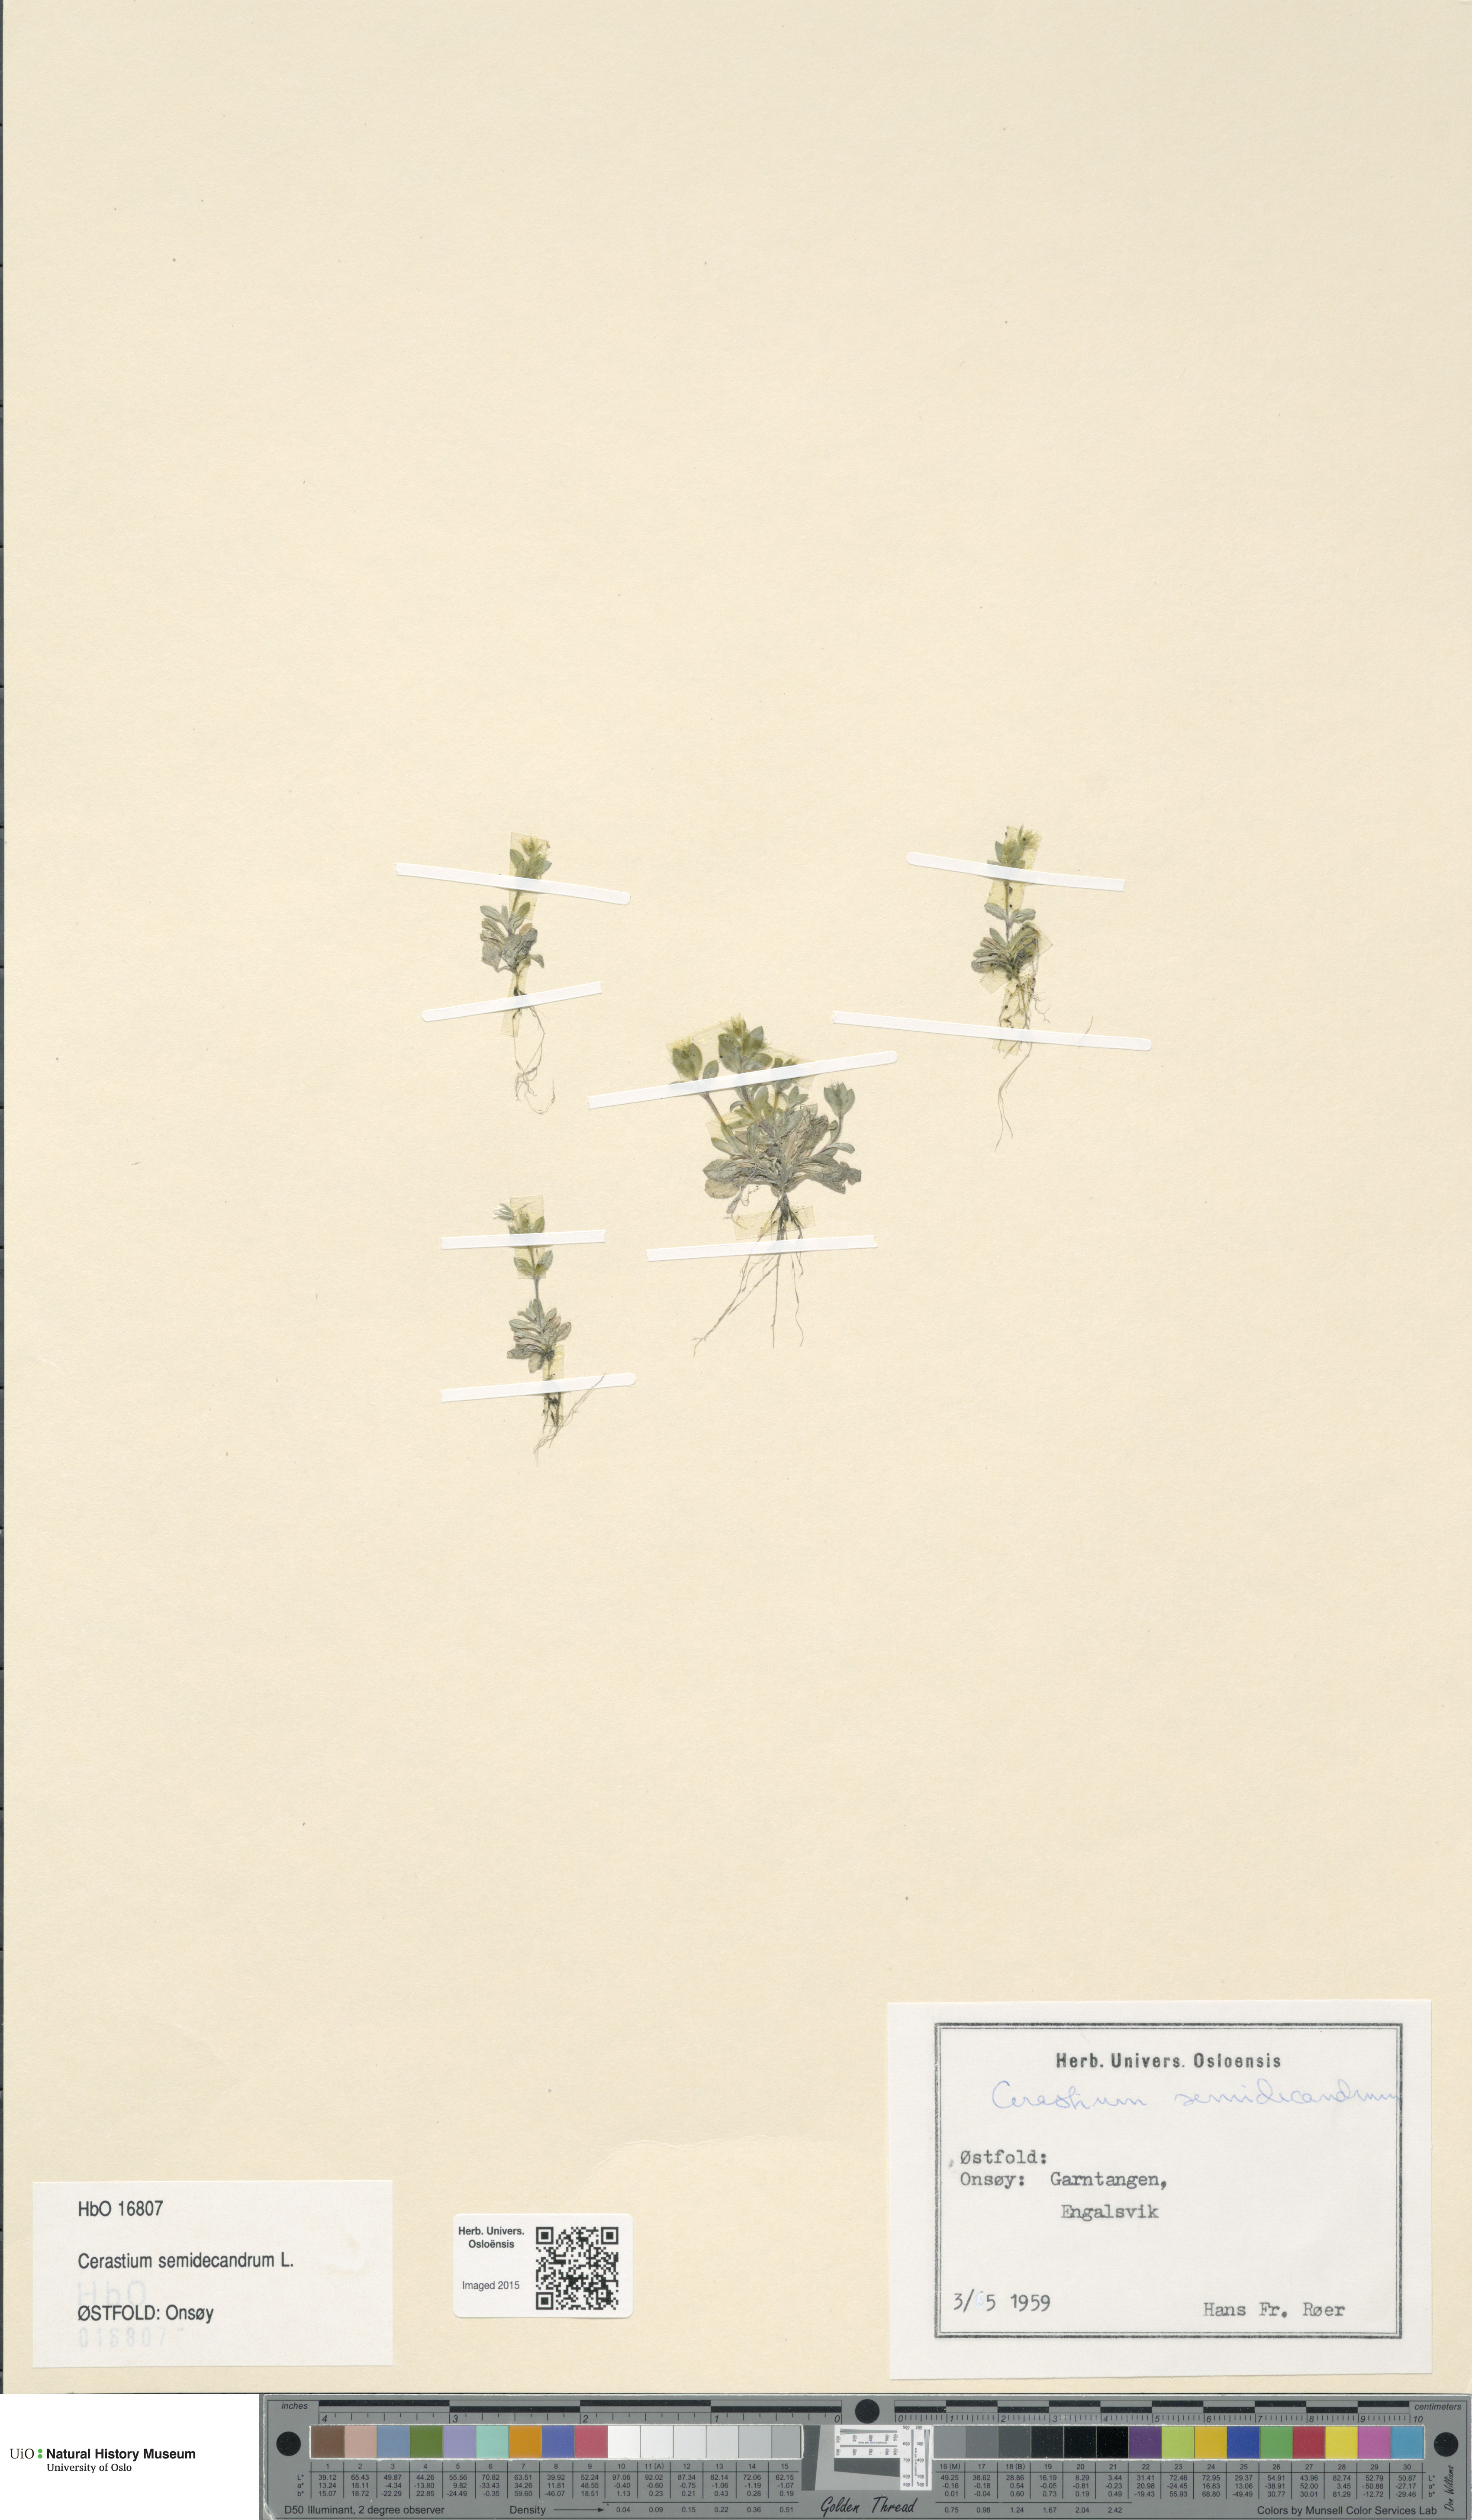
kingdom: Plantae
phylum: Tracheophyta
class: Magnoliopsida
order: Caryophyllales
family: Caryophyllaceae
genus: Cerastium
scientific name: Cerastium semidecandrum
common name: Little mouse-ear
